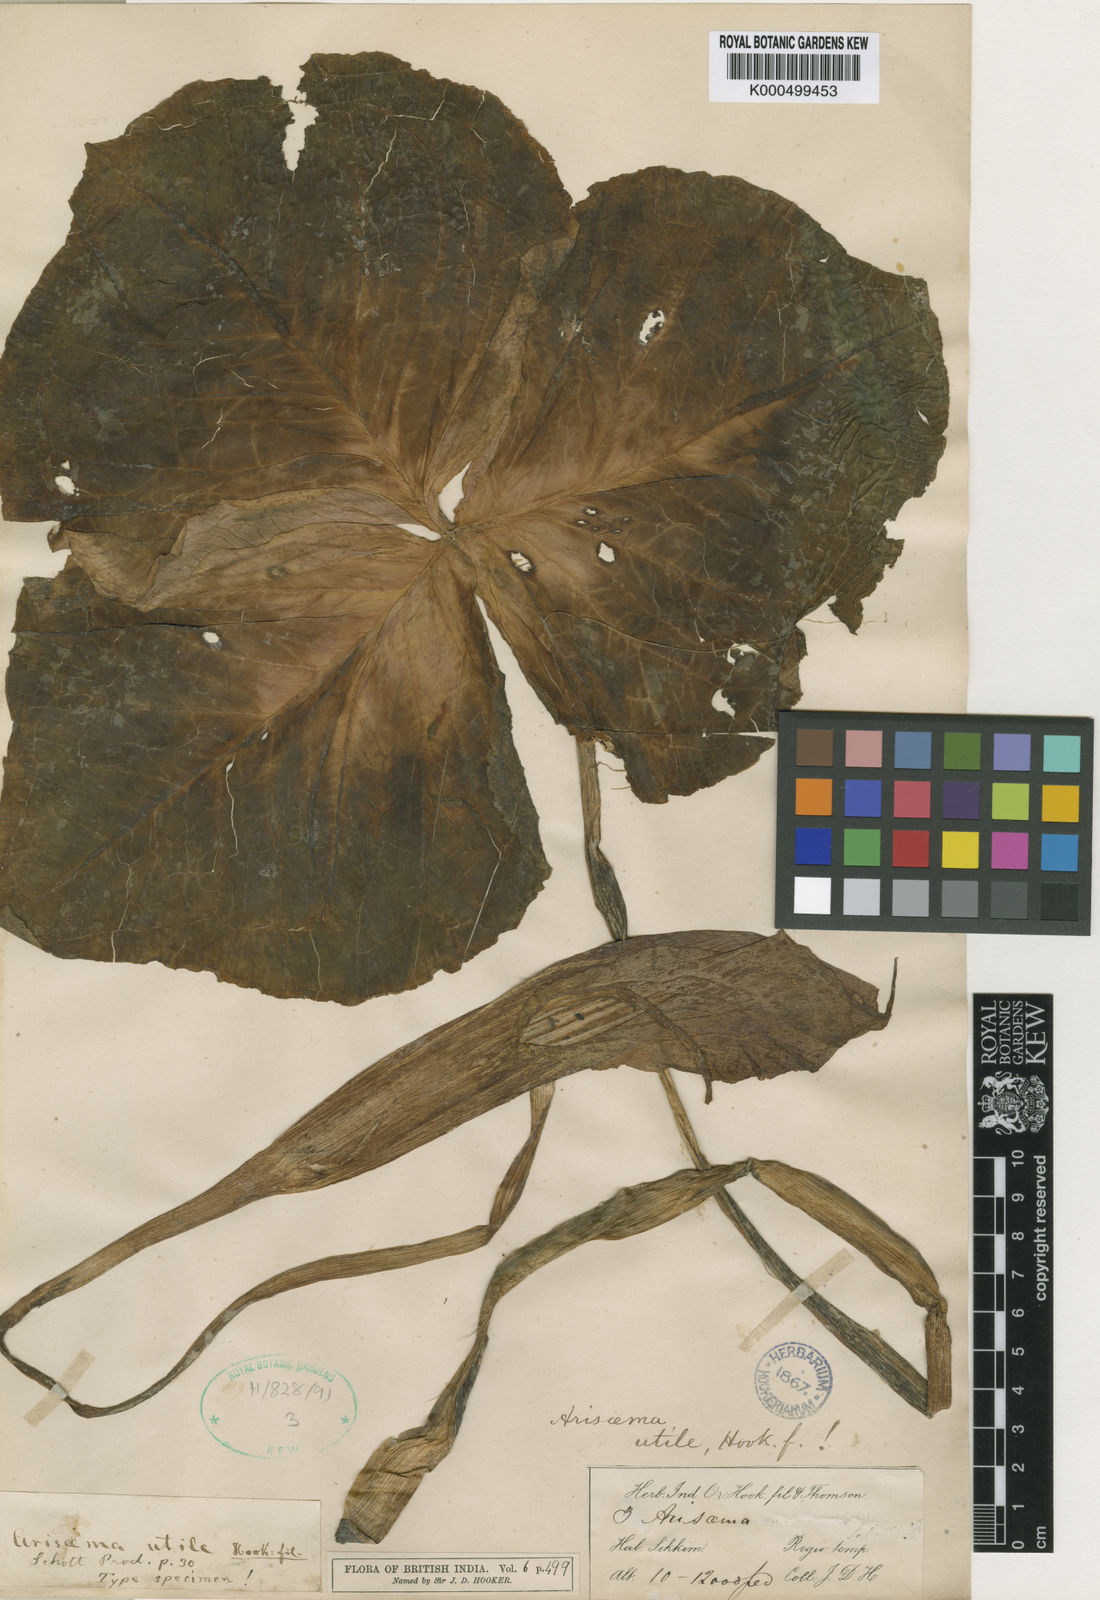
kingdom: Plantae
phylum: Tracheophyta
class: Liliopsida
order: Alismatales
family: Araceae
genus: Arisaema
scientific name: Arisaema propinquum
